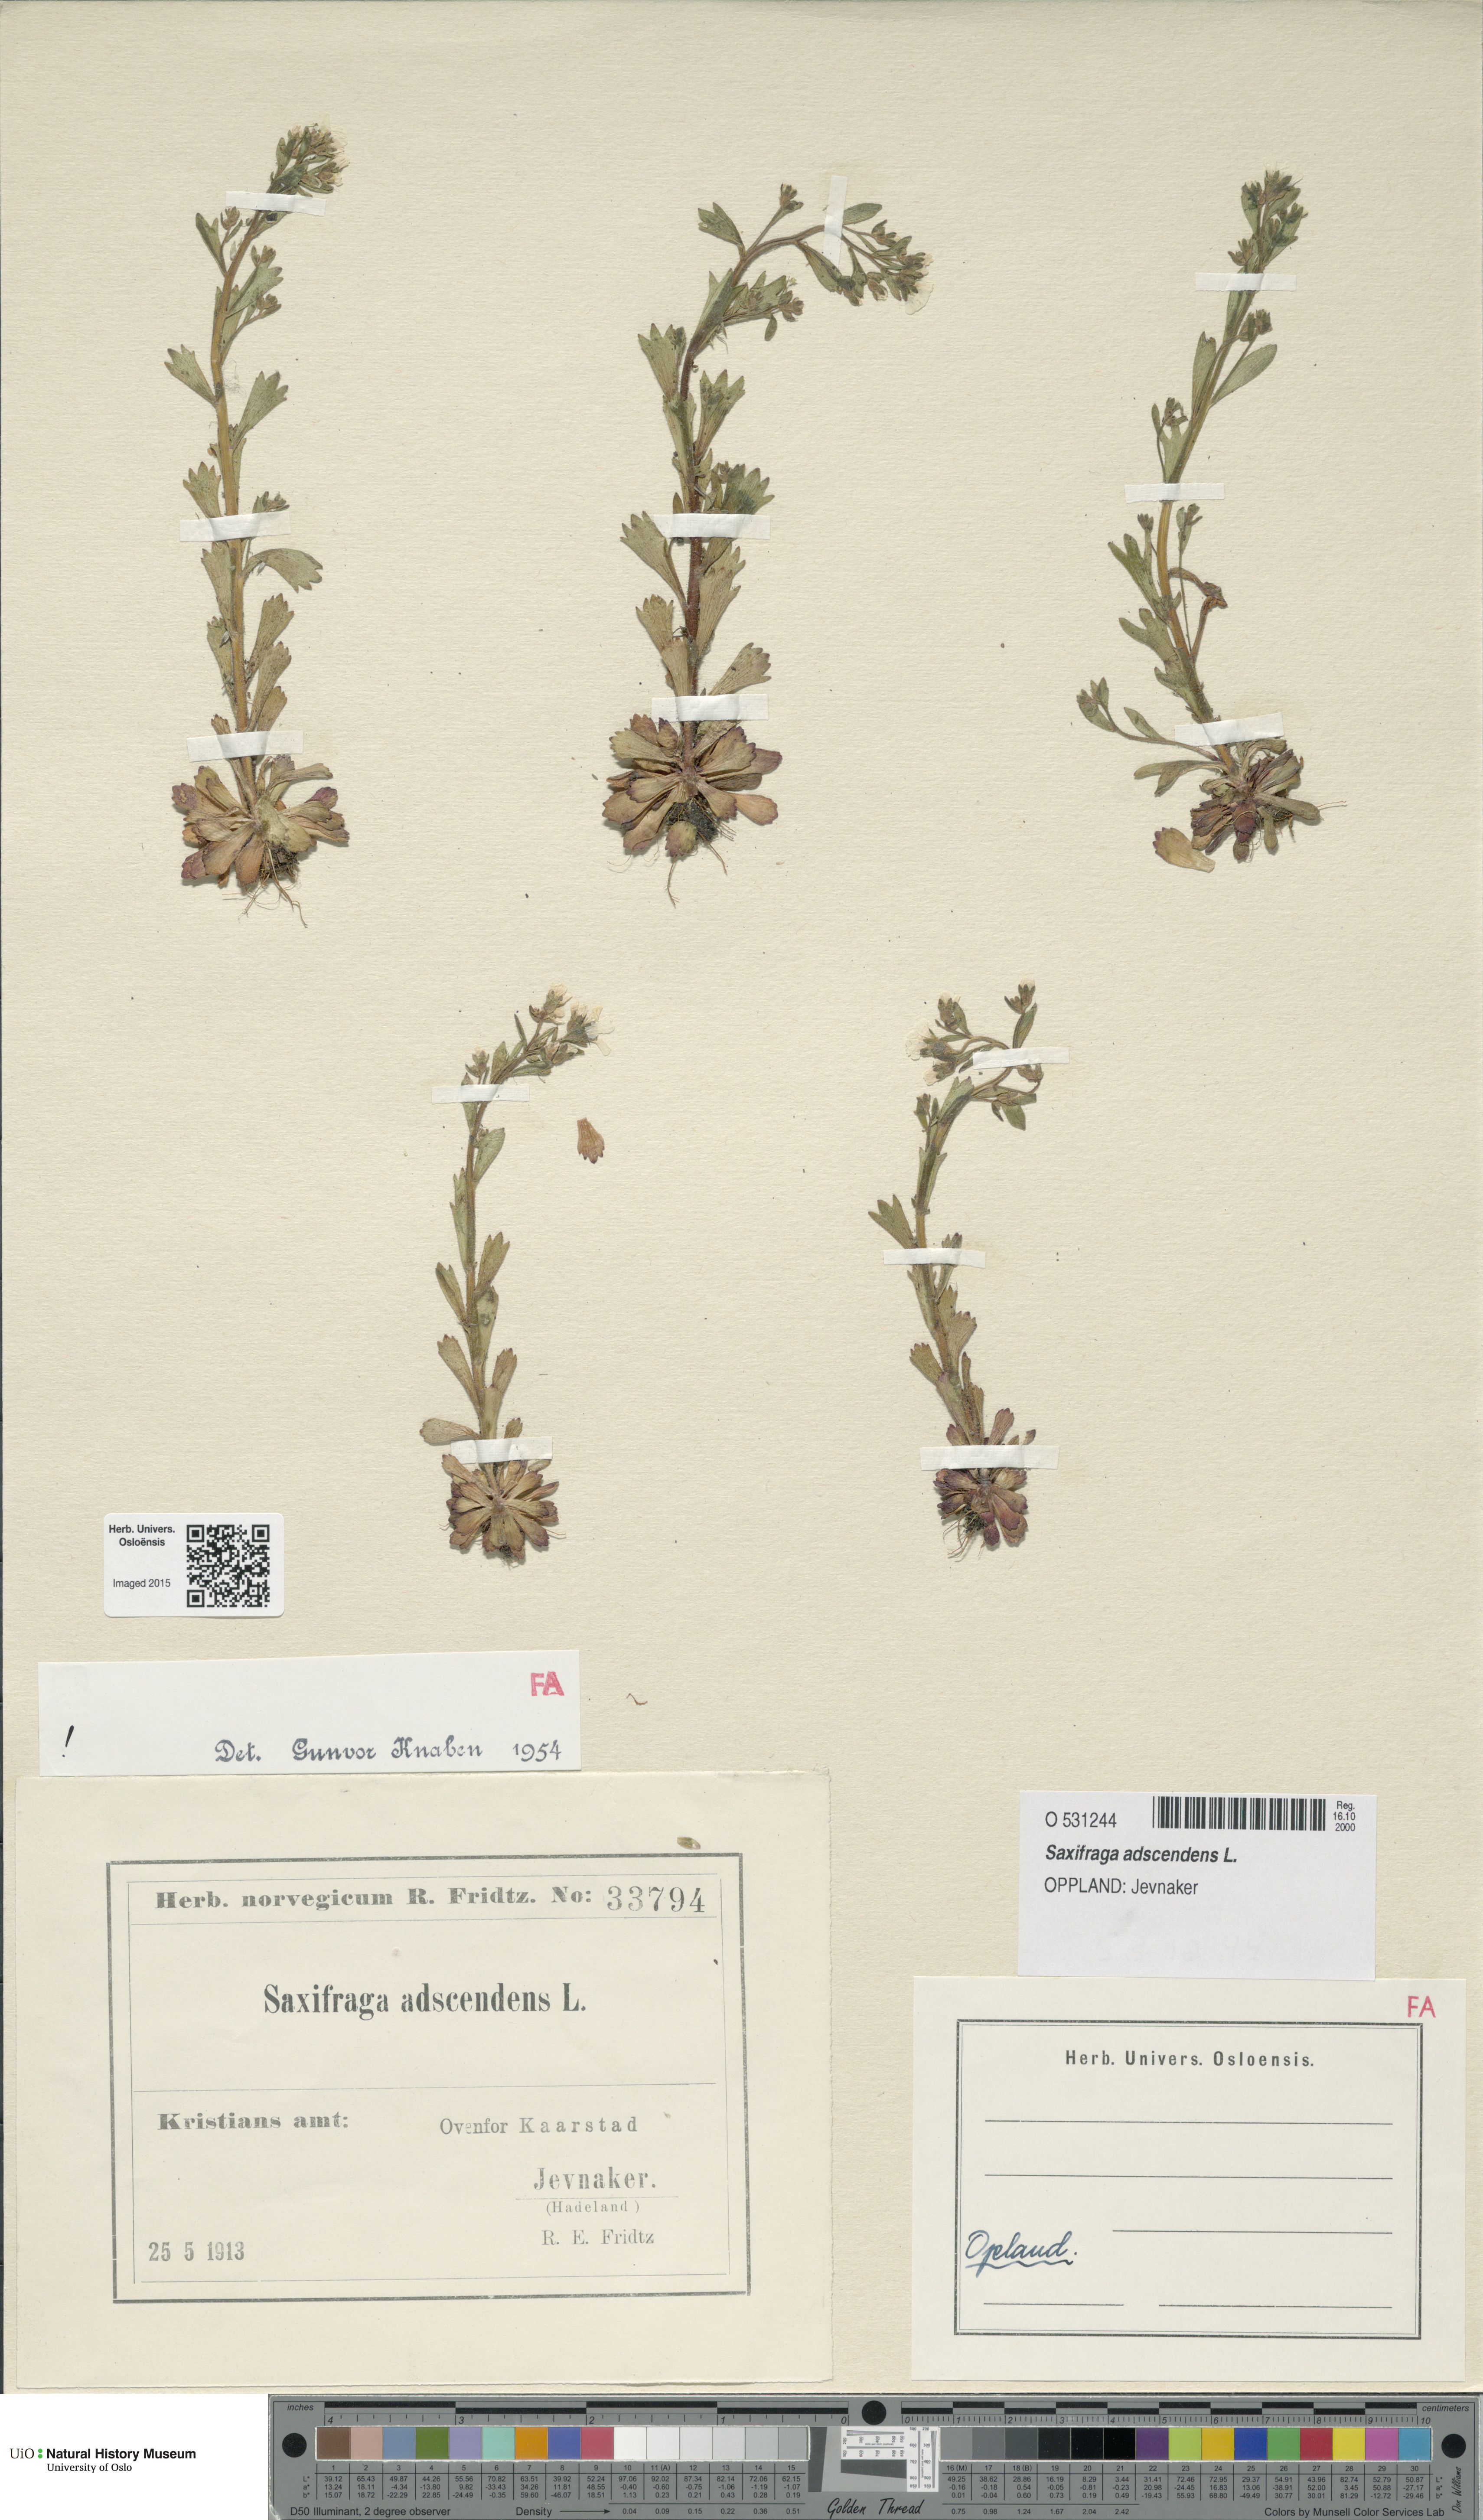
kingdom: Plantae
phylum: Tracheophyta
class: Magnoliopsida
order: Saxifragales
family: Saxifragaceae
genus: Saxifraga
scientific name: Saxifraga adscendens
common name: Ascending saxifrage
